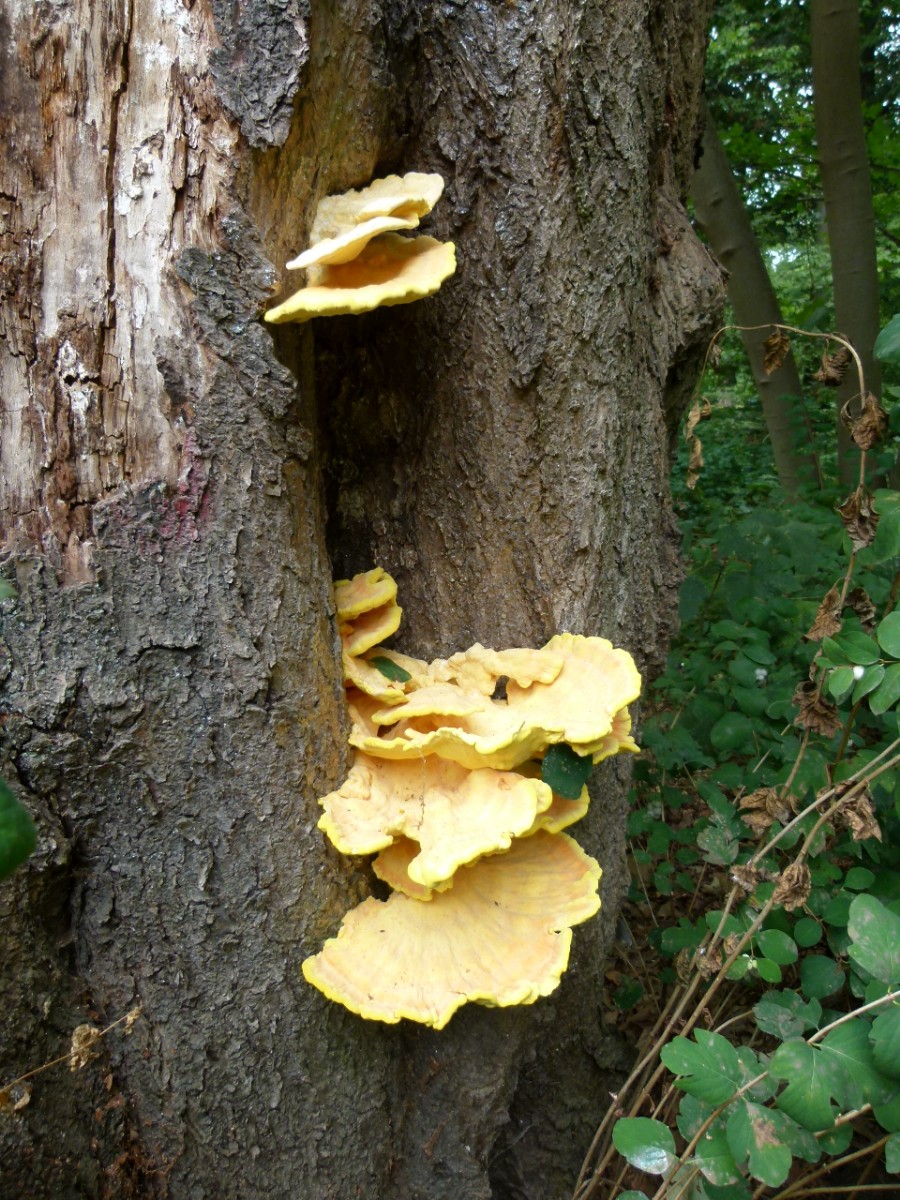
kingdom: Fungi
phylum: Basidiomycota
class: Agaricomycetes
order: Polyporales
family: Laetiporaceae
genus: Laetiporus
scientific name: Laetiporus sulphureus
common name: svovlporesvamp
